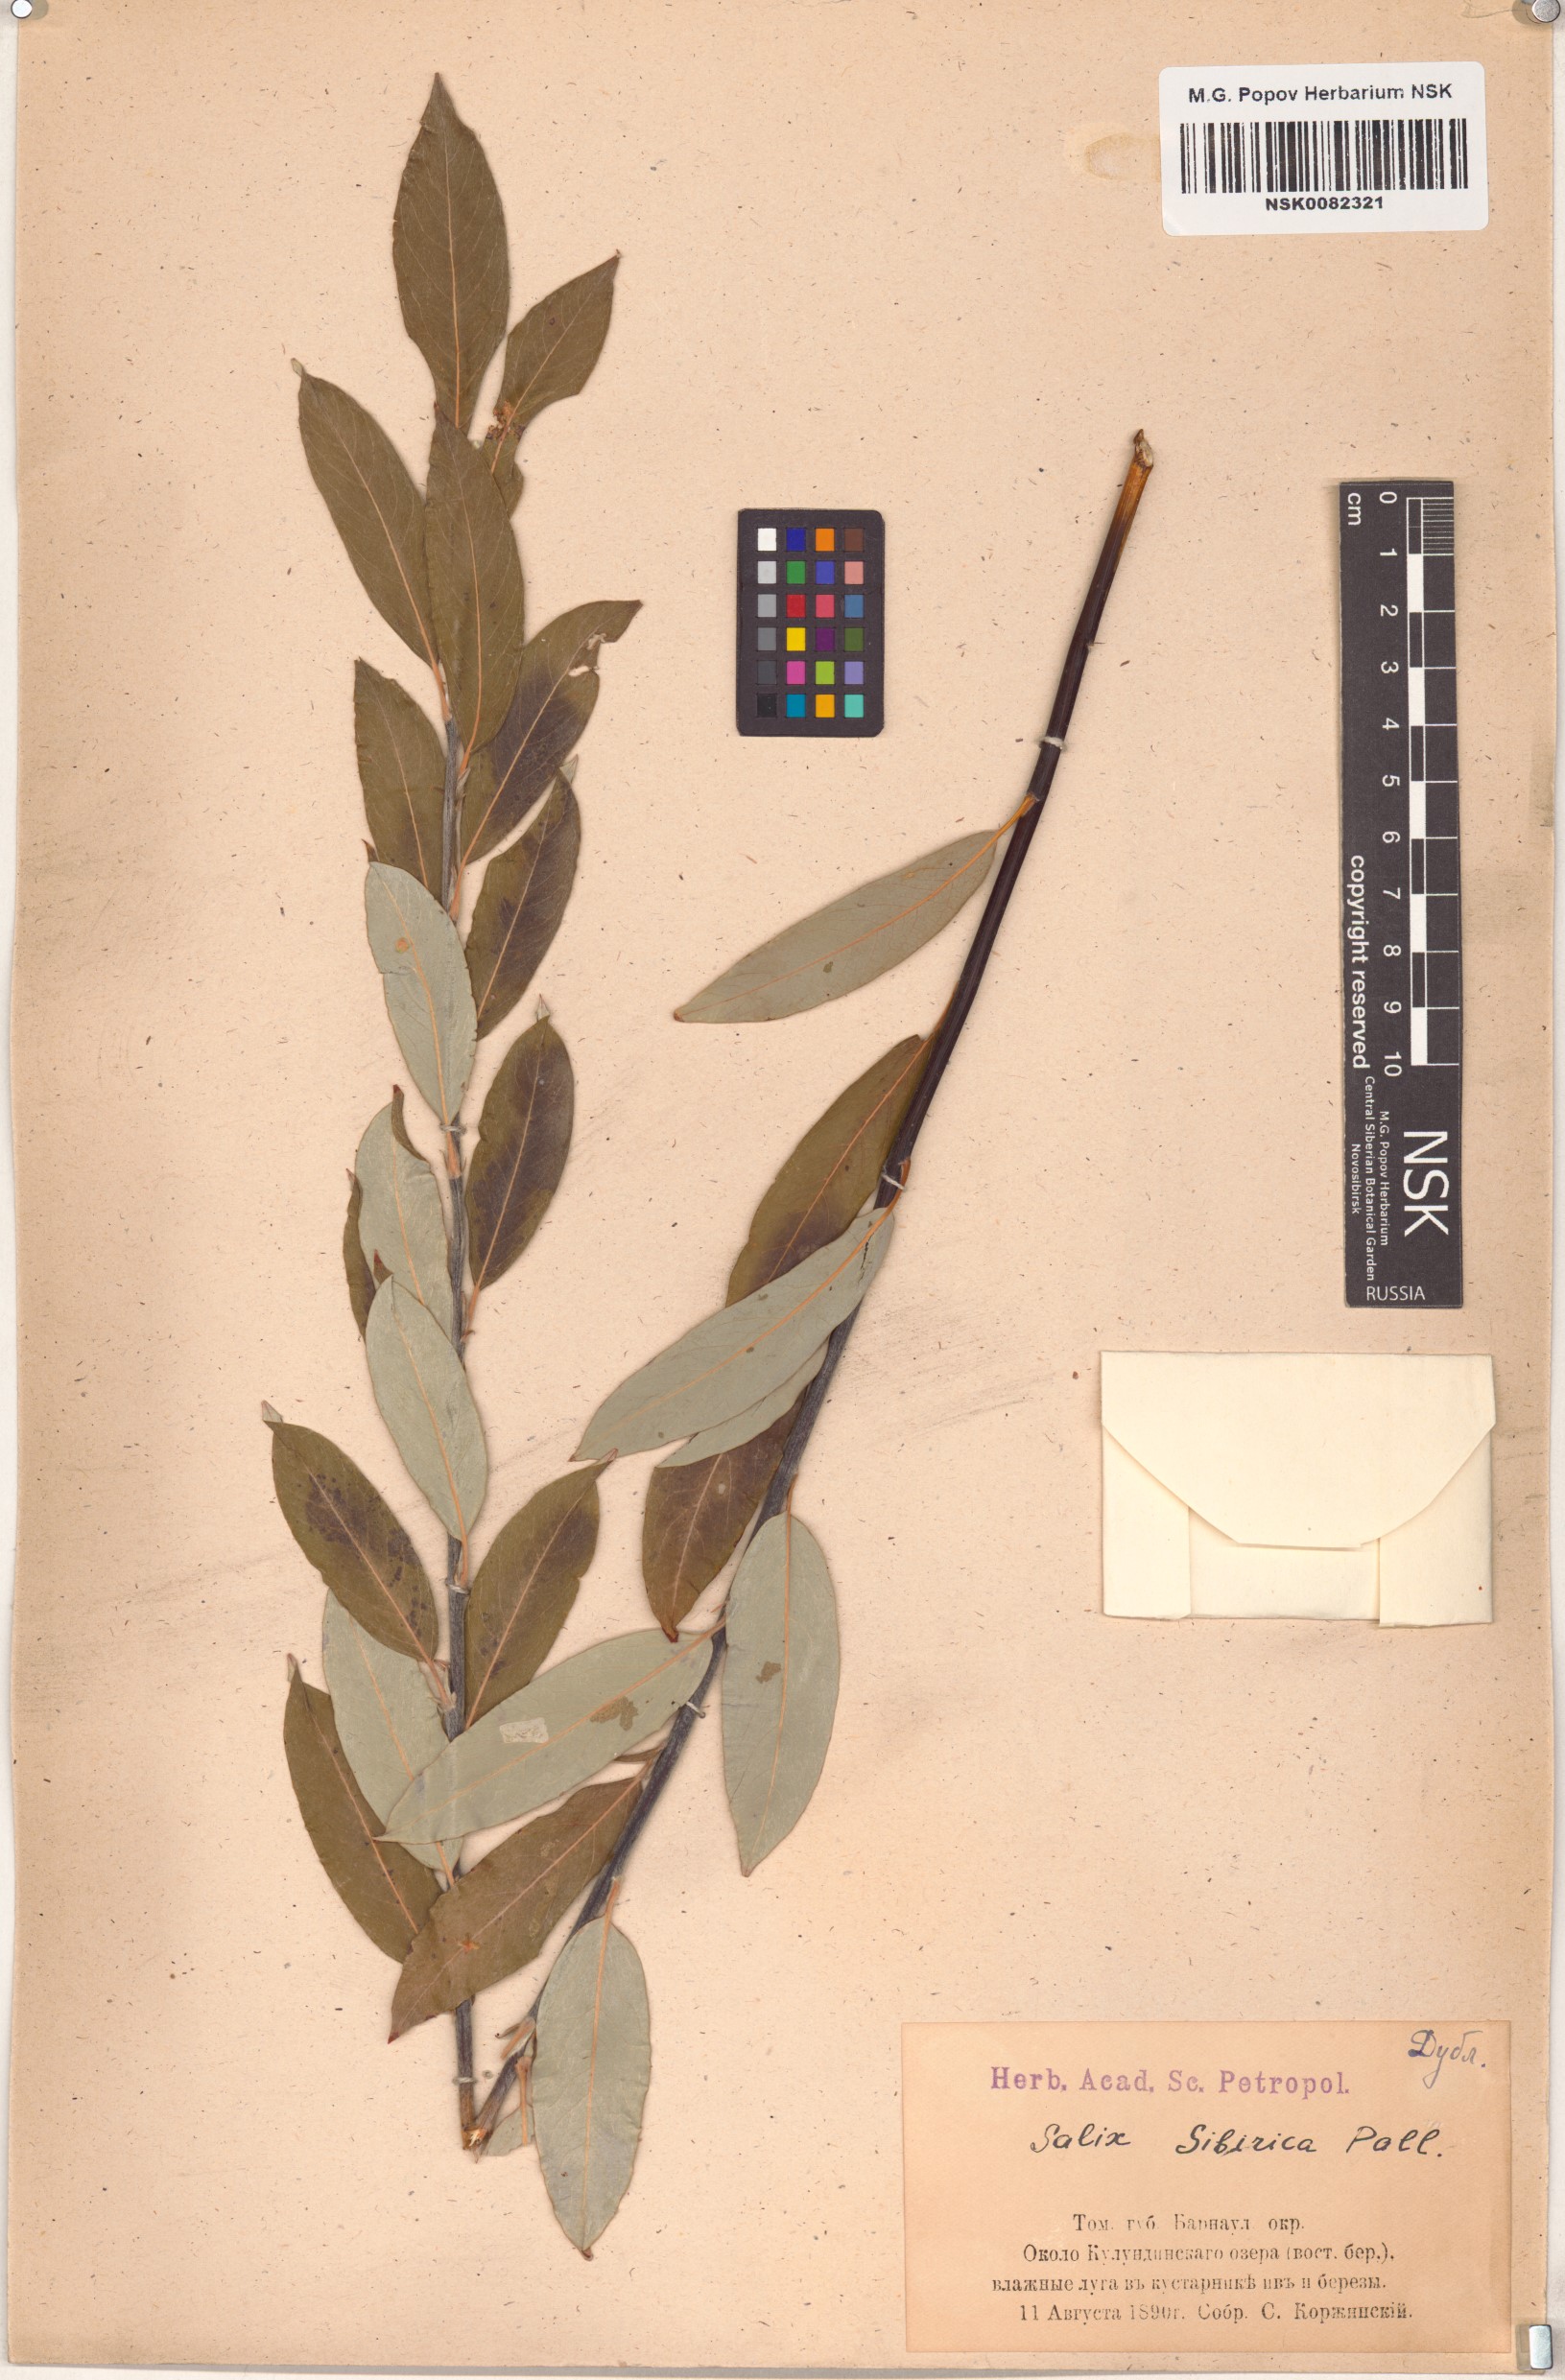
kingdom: Plantae
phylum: Tracheophyta
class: Magnoliopsida
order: Malpighiales
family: Salicaceae
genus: Salix
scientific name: Salix rosmarinifolia
